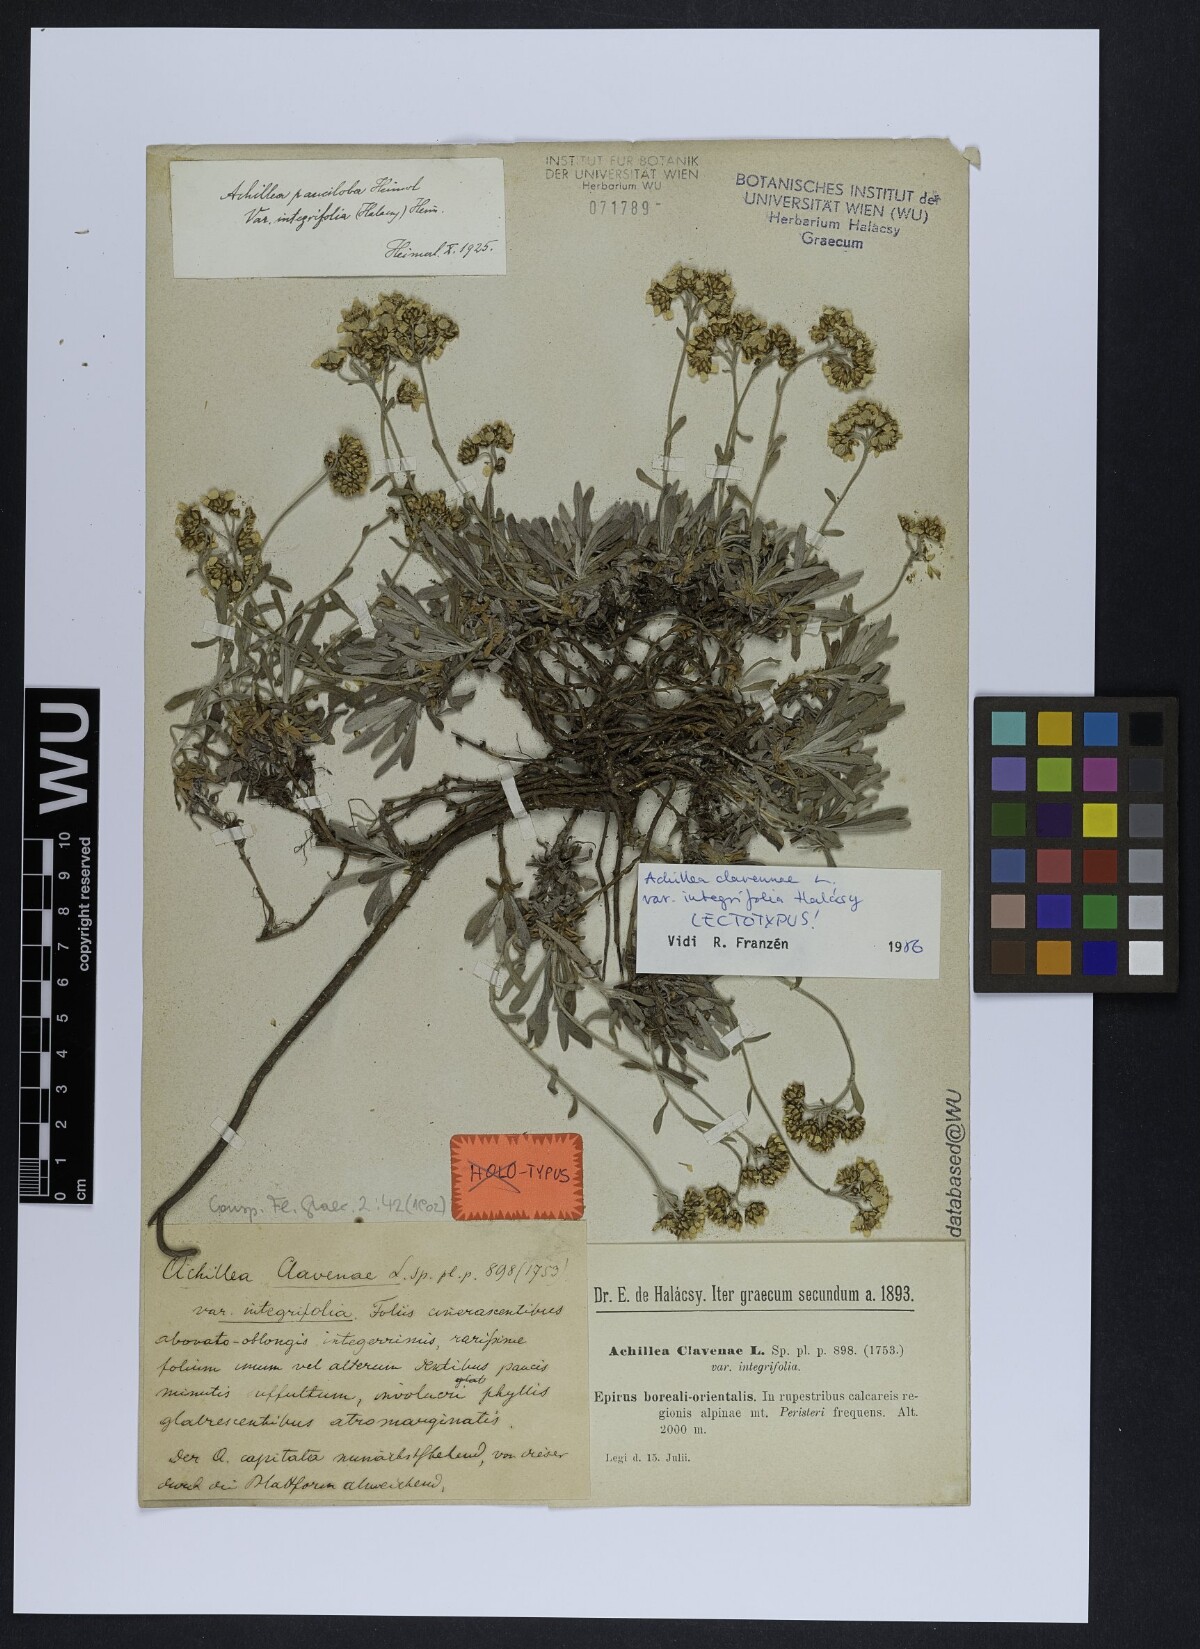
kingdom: Plantae
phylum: Tracheophyta
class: Magnoliopsida
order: Asterales
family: Asteraceae
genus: Achillea
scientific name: Achillea pindicola
